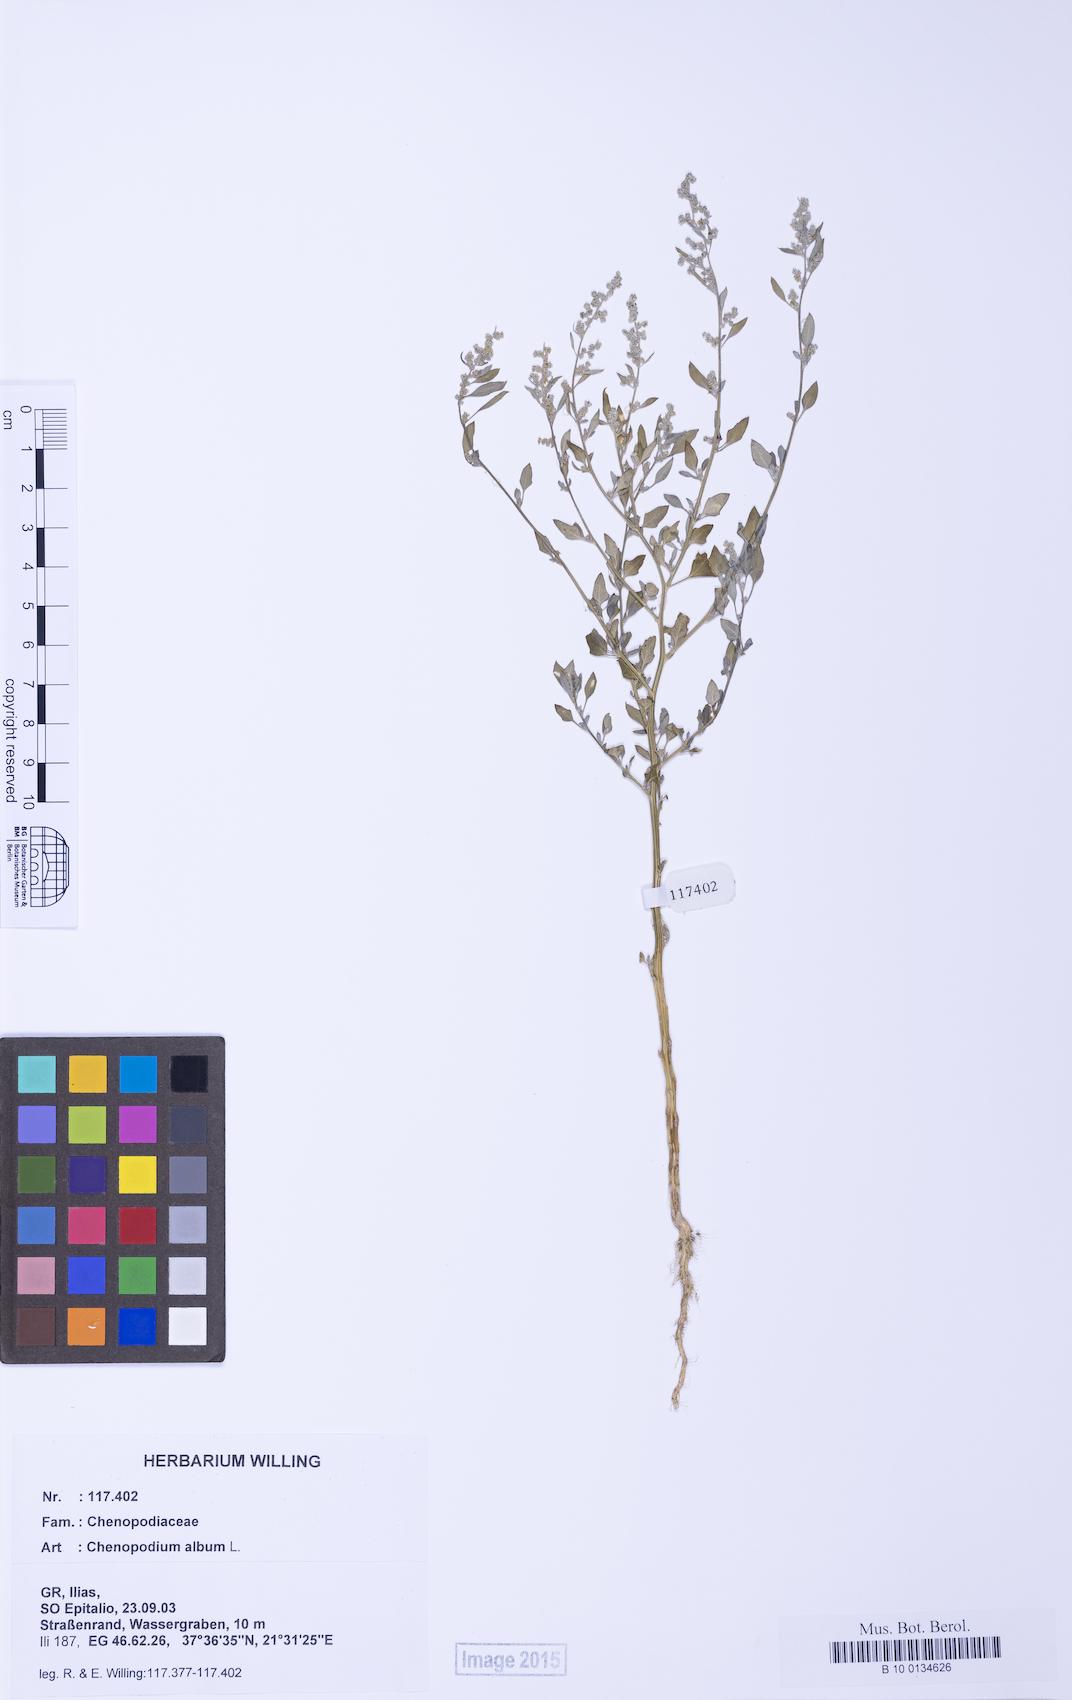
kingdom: Plantae
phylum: Tracheophyta
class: Magnoliopsida
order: Caryophyllales
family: Amaranthaceae
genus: Chenopodium
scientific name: Chenopodium striatiforme
